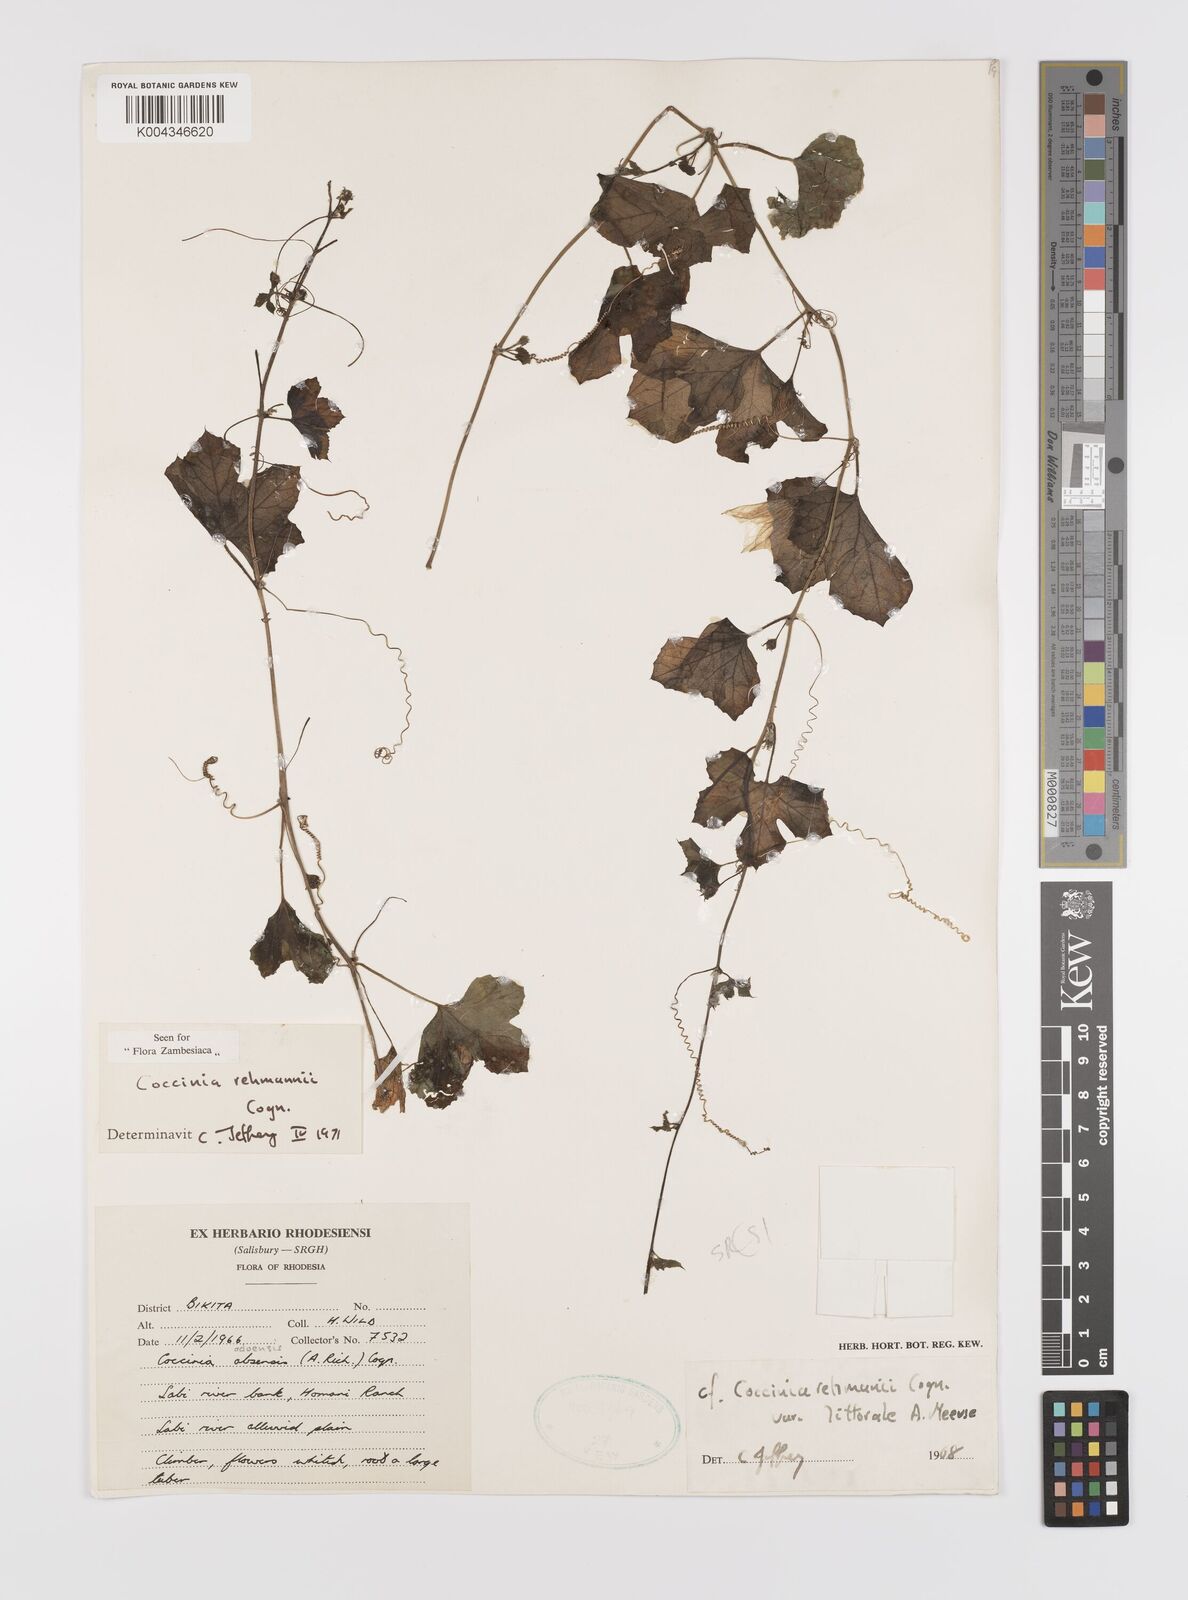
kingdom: Plantae
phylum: Tracheophyta
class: Magnoliopsida
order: Cucurbitales
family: Cucurbitaceae
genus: Coccinia
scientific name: Coccinia rehmannii
